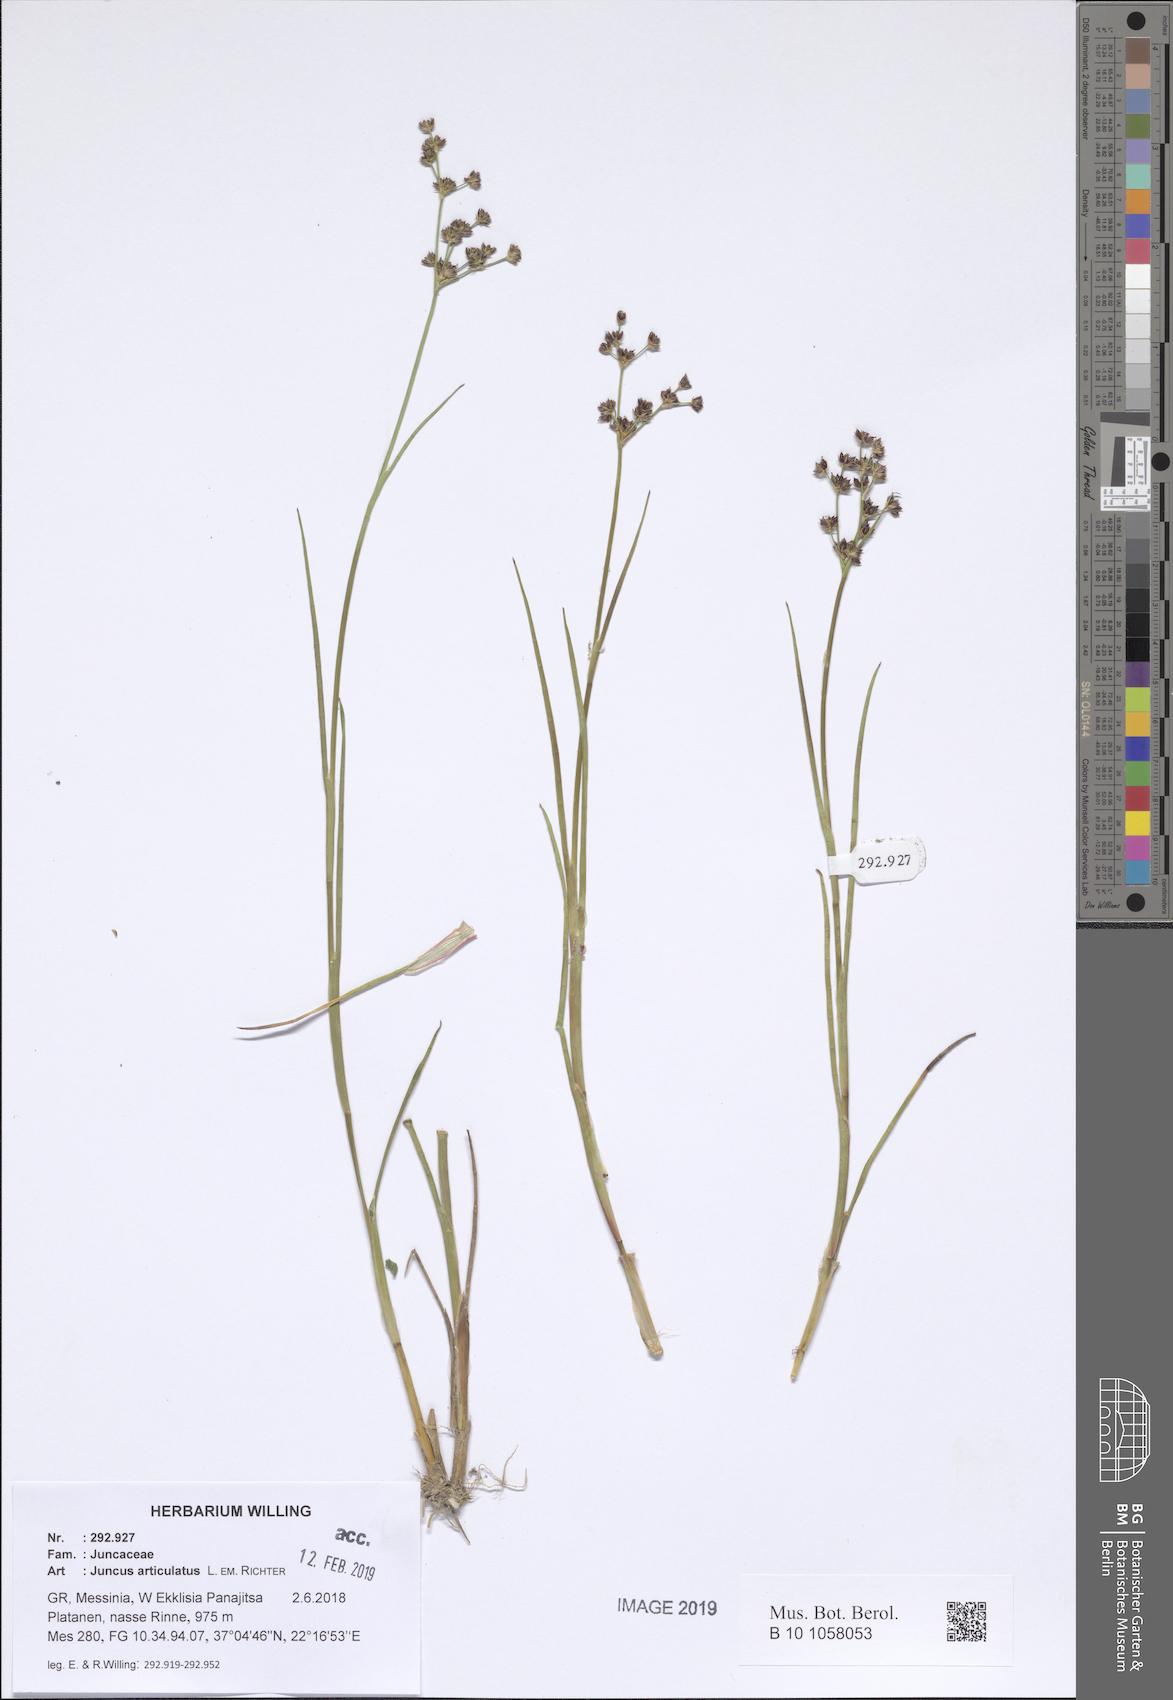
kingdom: Plantae
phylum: Tracheophyta
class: Liliopsida
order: Poales
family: Juncaceae
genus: Juncus
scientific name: Juncus articulatus
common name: Jointed rush
